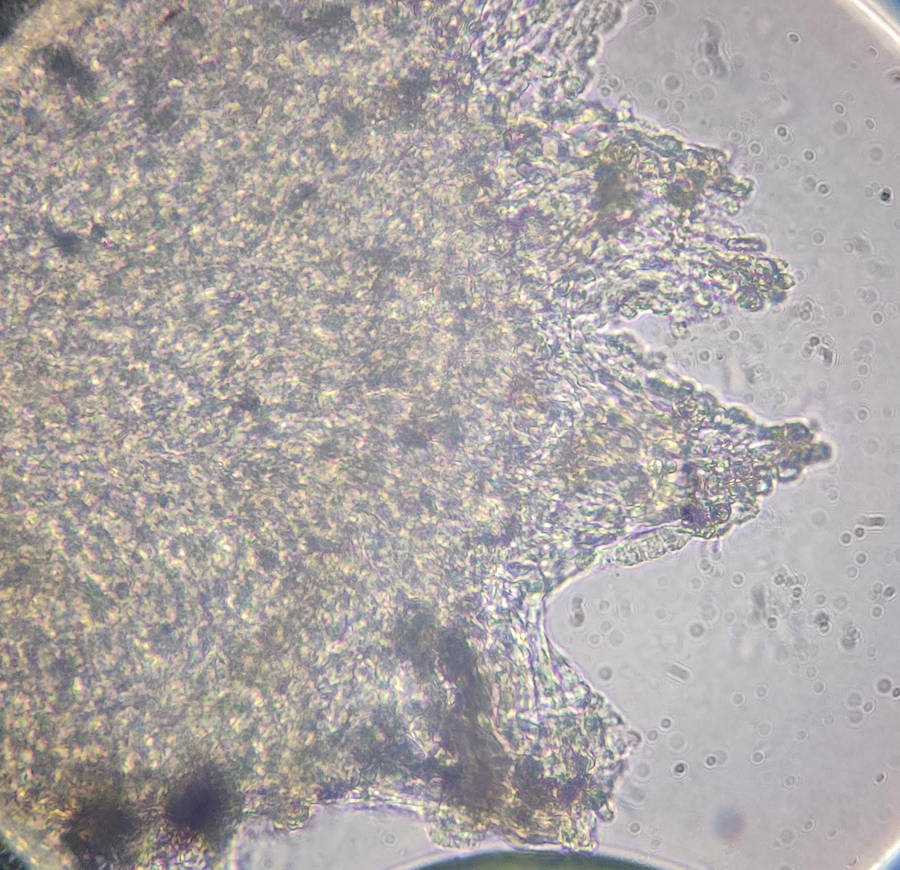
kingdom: Fungi
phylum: Ascomycota
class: Leotiomycetes
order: Helotiales
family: Hyaloscyphaceae
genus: Cistella
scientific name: Cistella grevillei
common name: lædergul sirskive
